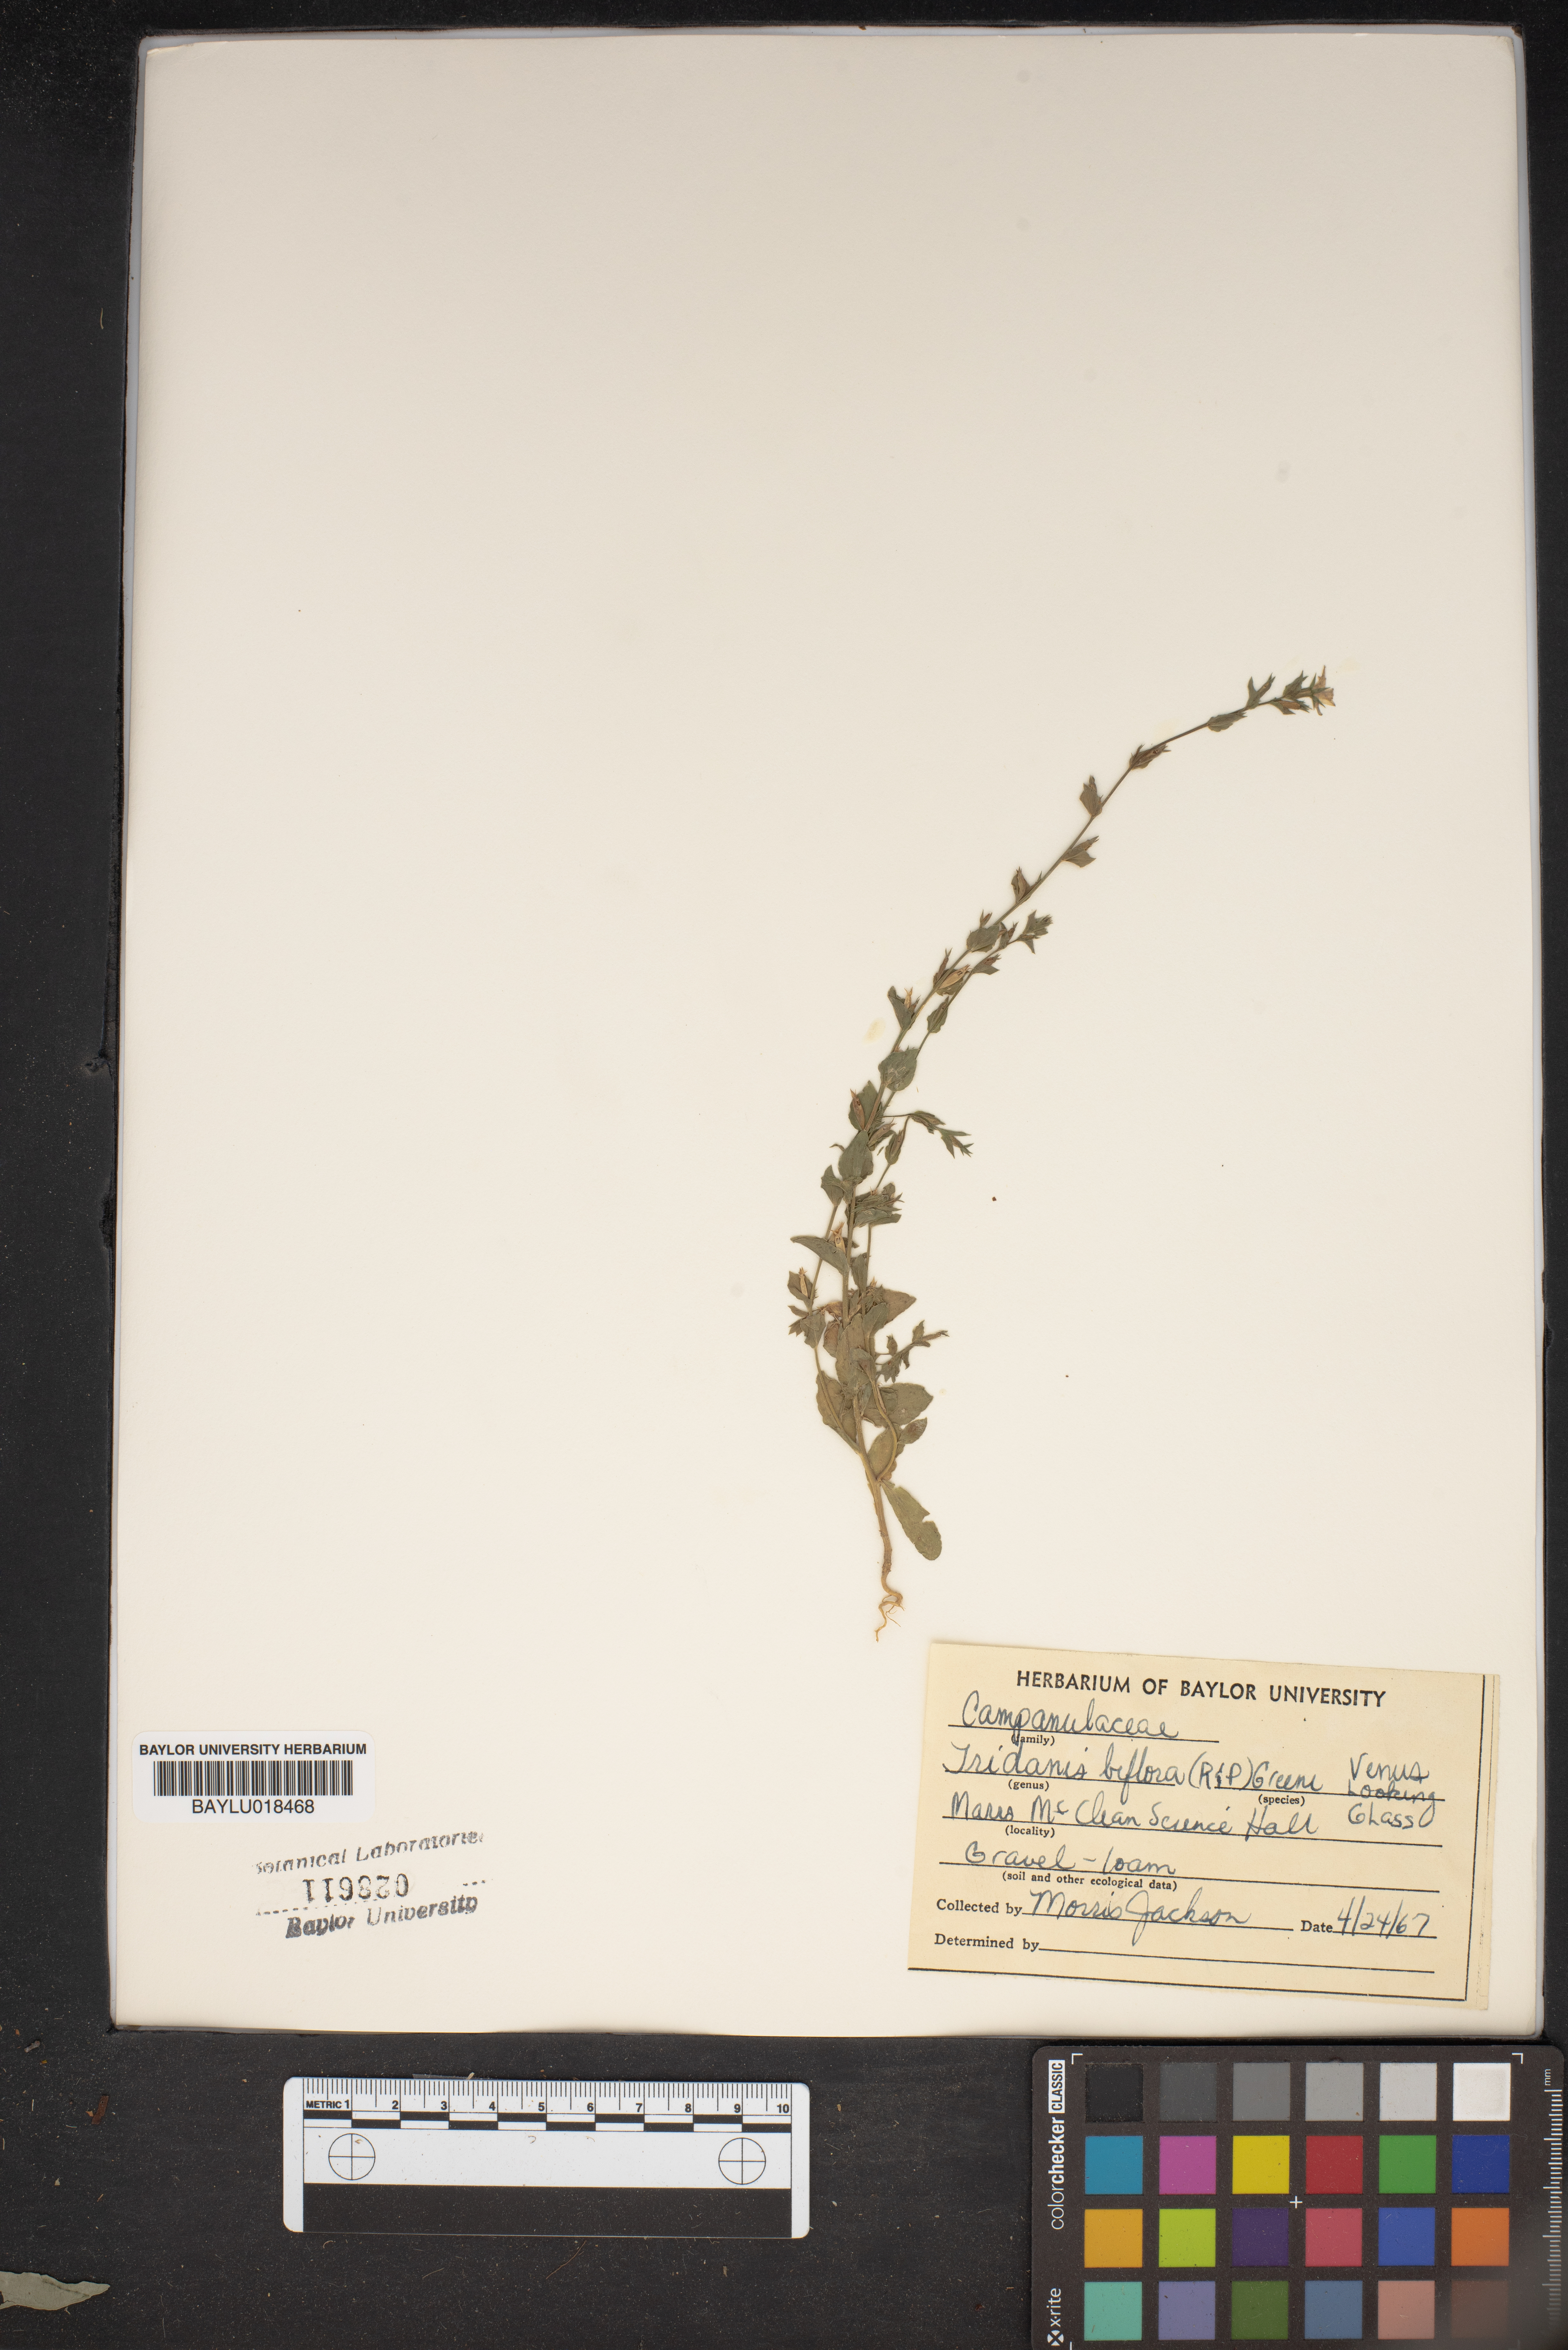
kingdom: Plantae
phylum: Tracheophyta
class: Magnoliopsida
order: Asterales
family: Campanulaceae
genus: Triodanis
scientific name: Triodanis perfoliata
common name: Clasping venus' looking-glass
